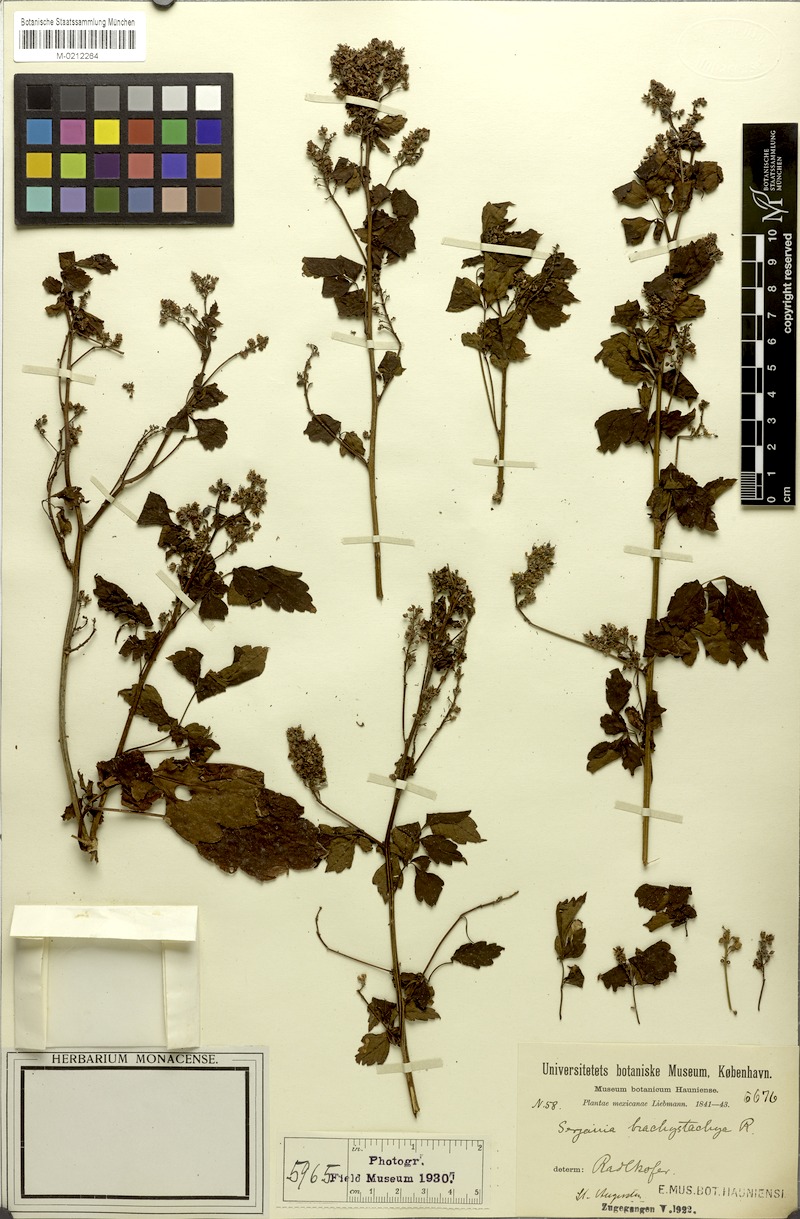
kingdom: Plantae
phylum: Tracheophyta
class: Magnoliopsida
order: Sapindales
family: Sapindaceae
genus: Serjania
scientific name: Serjania brachystachya
